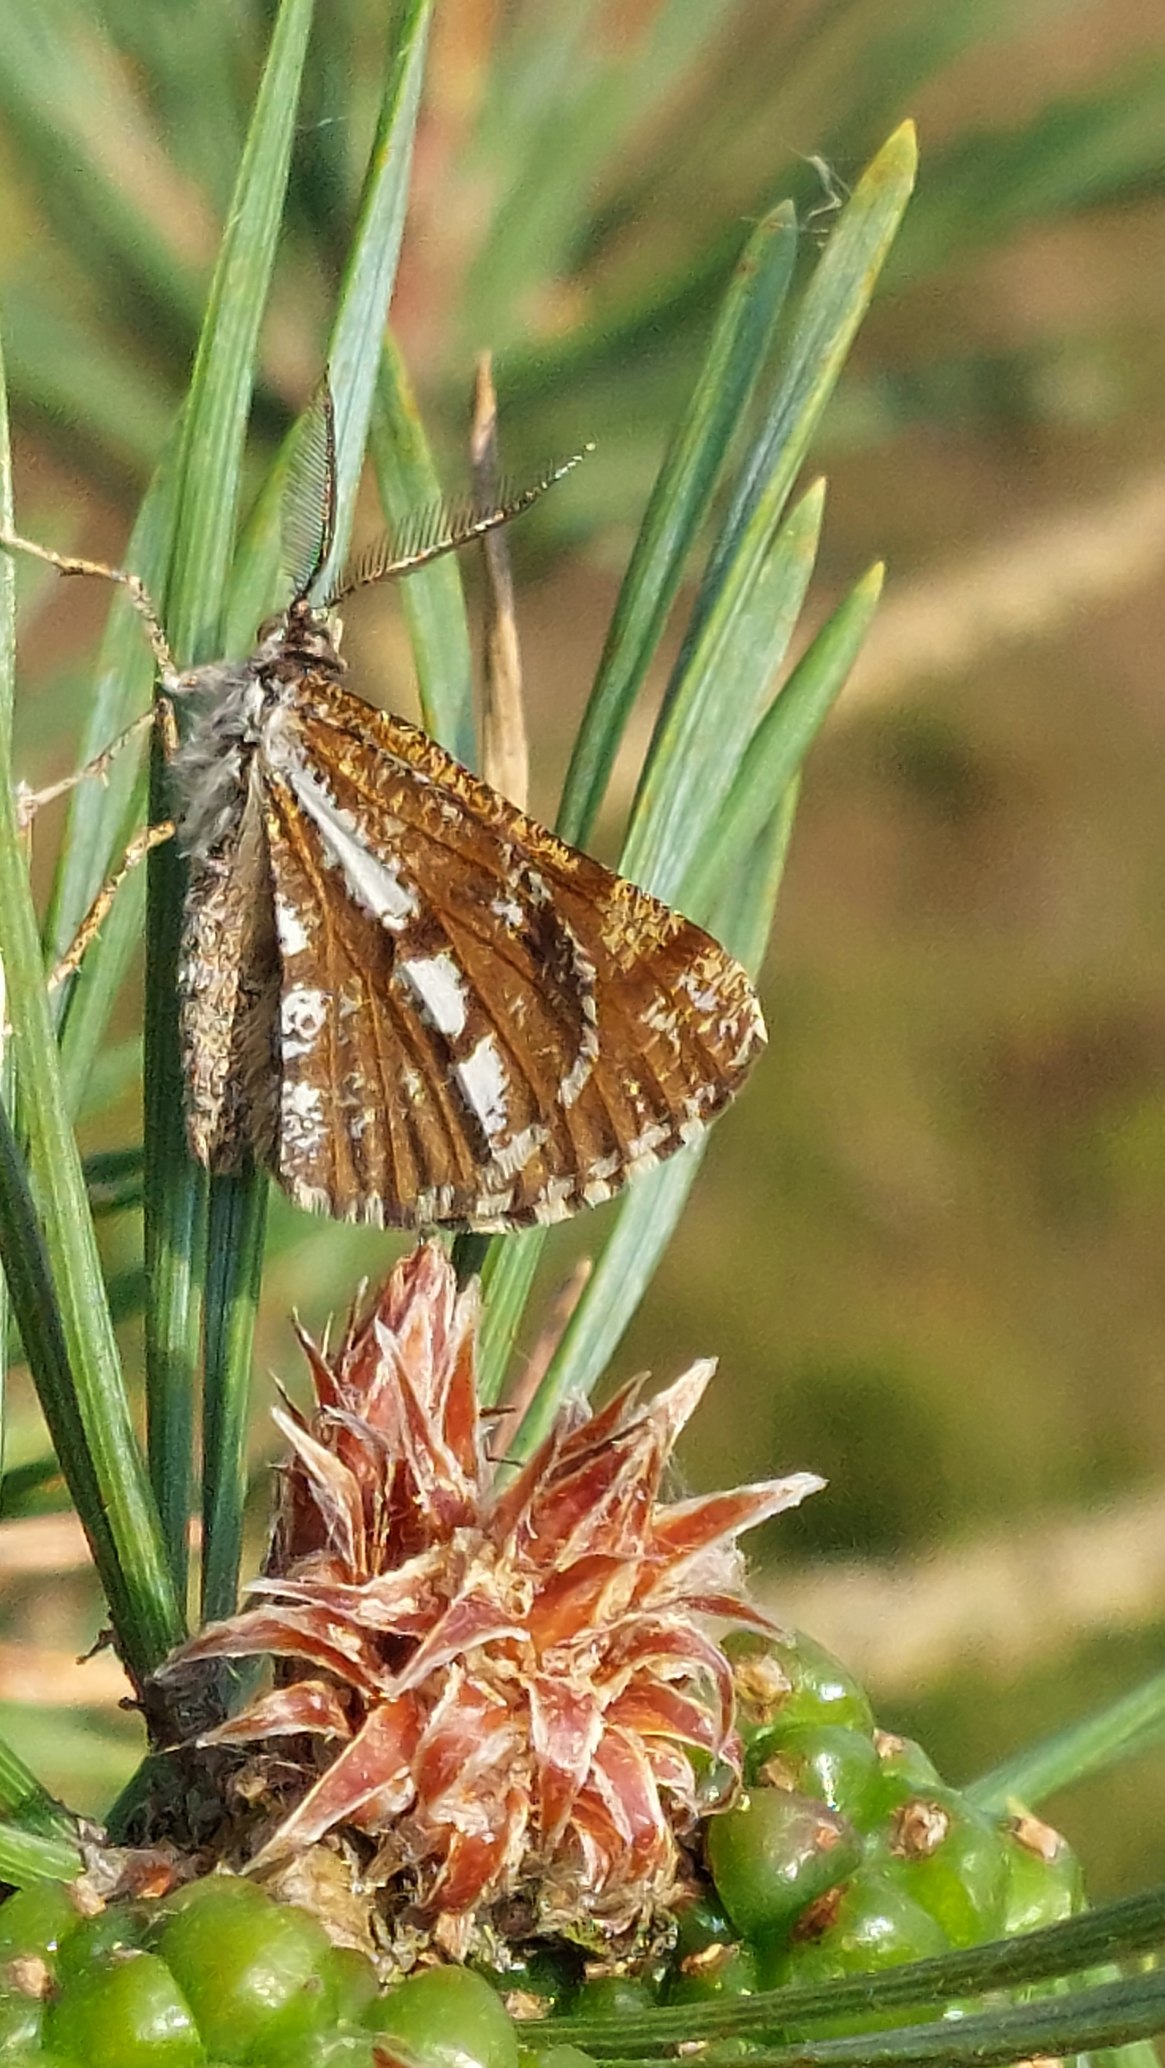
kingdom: Animalia
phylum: Arthropoda
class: Insecta
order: Lepidoptera
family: Geometridae
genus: Bupalus
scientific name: Bupalus piniaria
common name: Fyrremåler
